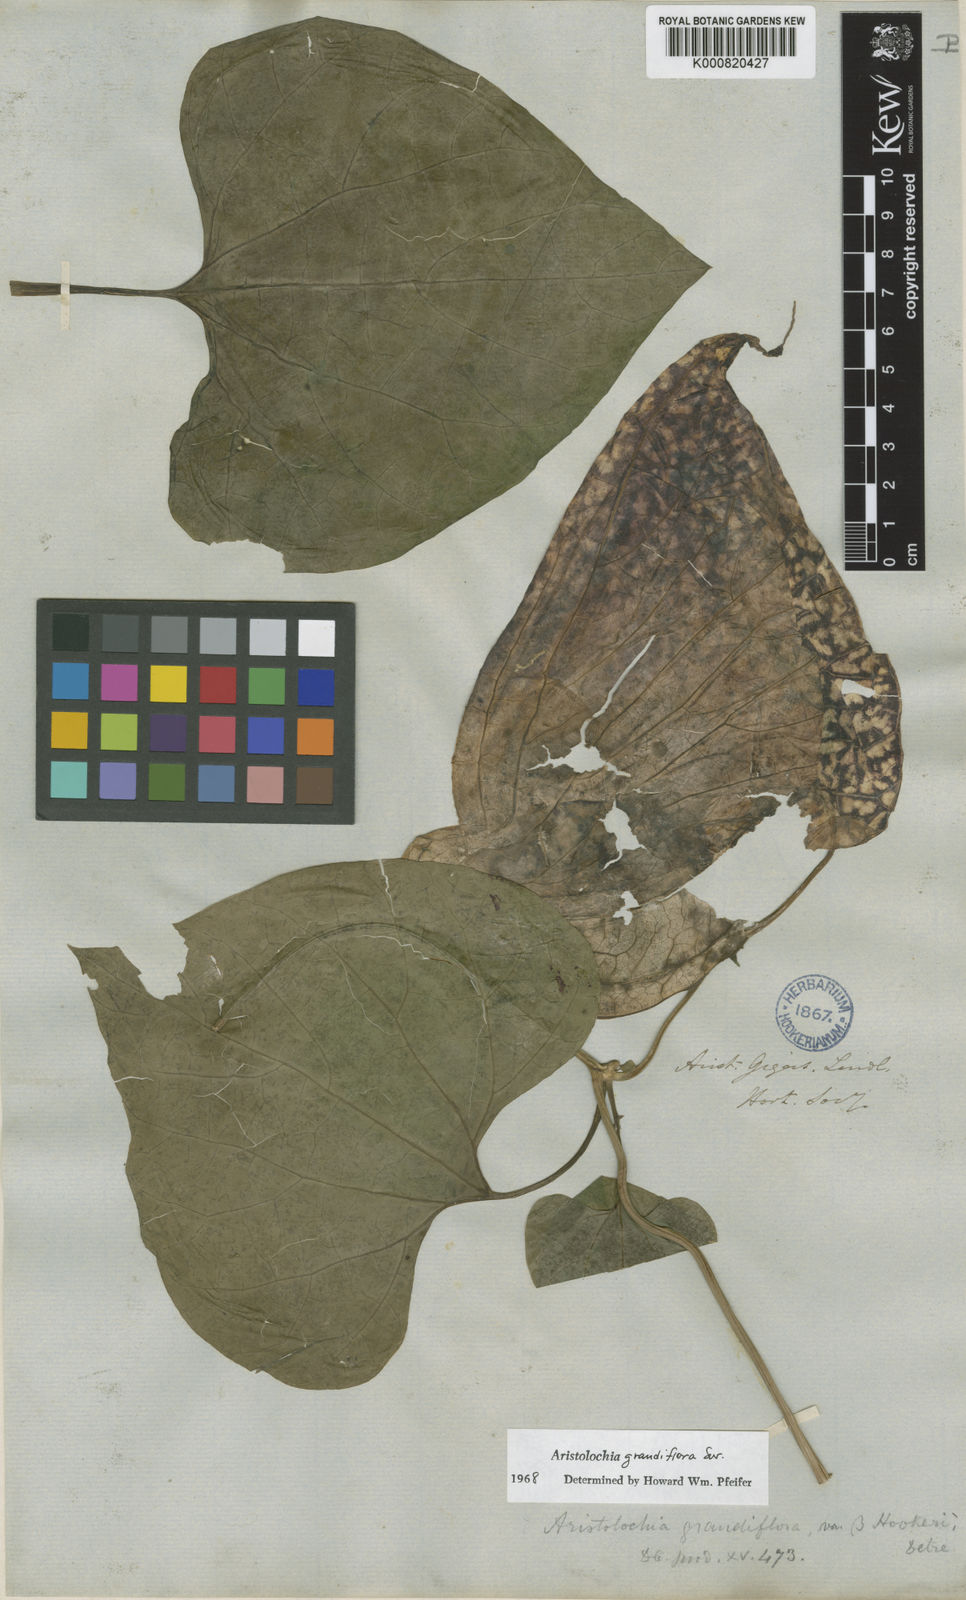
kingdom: Plantae
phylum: Tracheophyta
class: Magnoliopsida
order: Piperales
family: Aristolochiaceae
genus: Aristolochia
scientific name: Aristolochia grandiflora
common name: Pelicanflower
